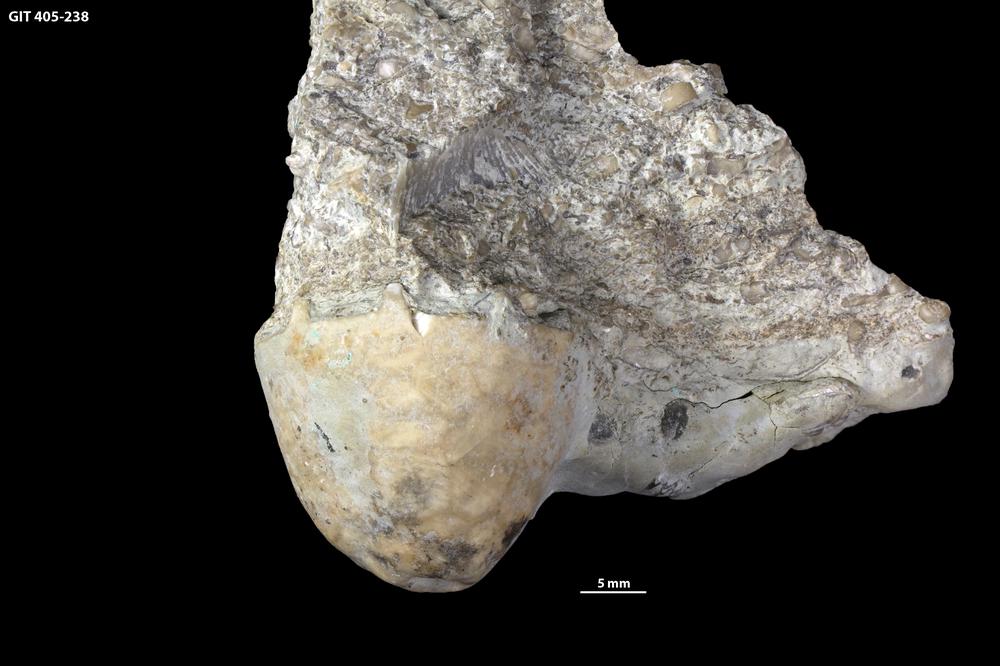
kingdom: Animalia
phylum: Echinodermata
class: Crinoidea
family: Eucalyptocrinitidae
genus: Eucalyptocrinites
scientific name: Eucalyptocrinites
